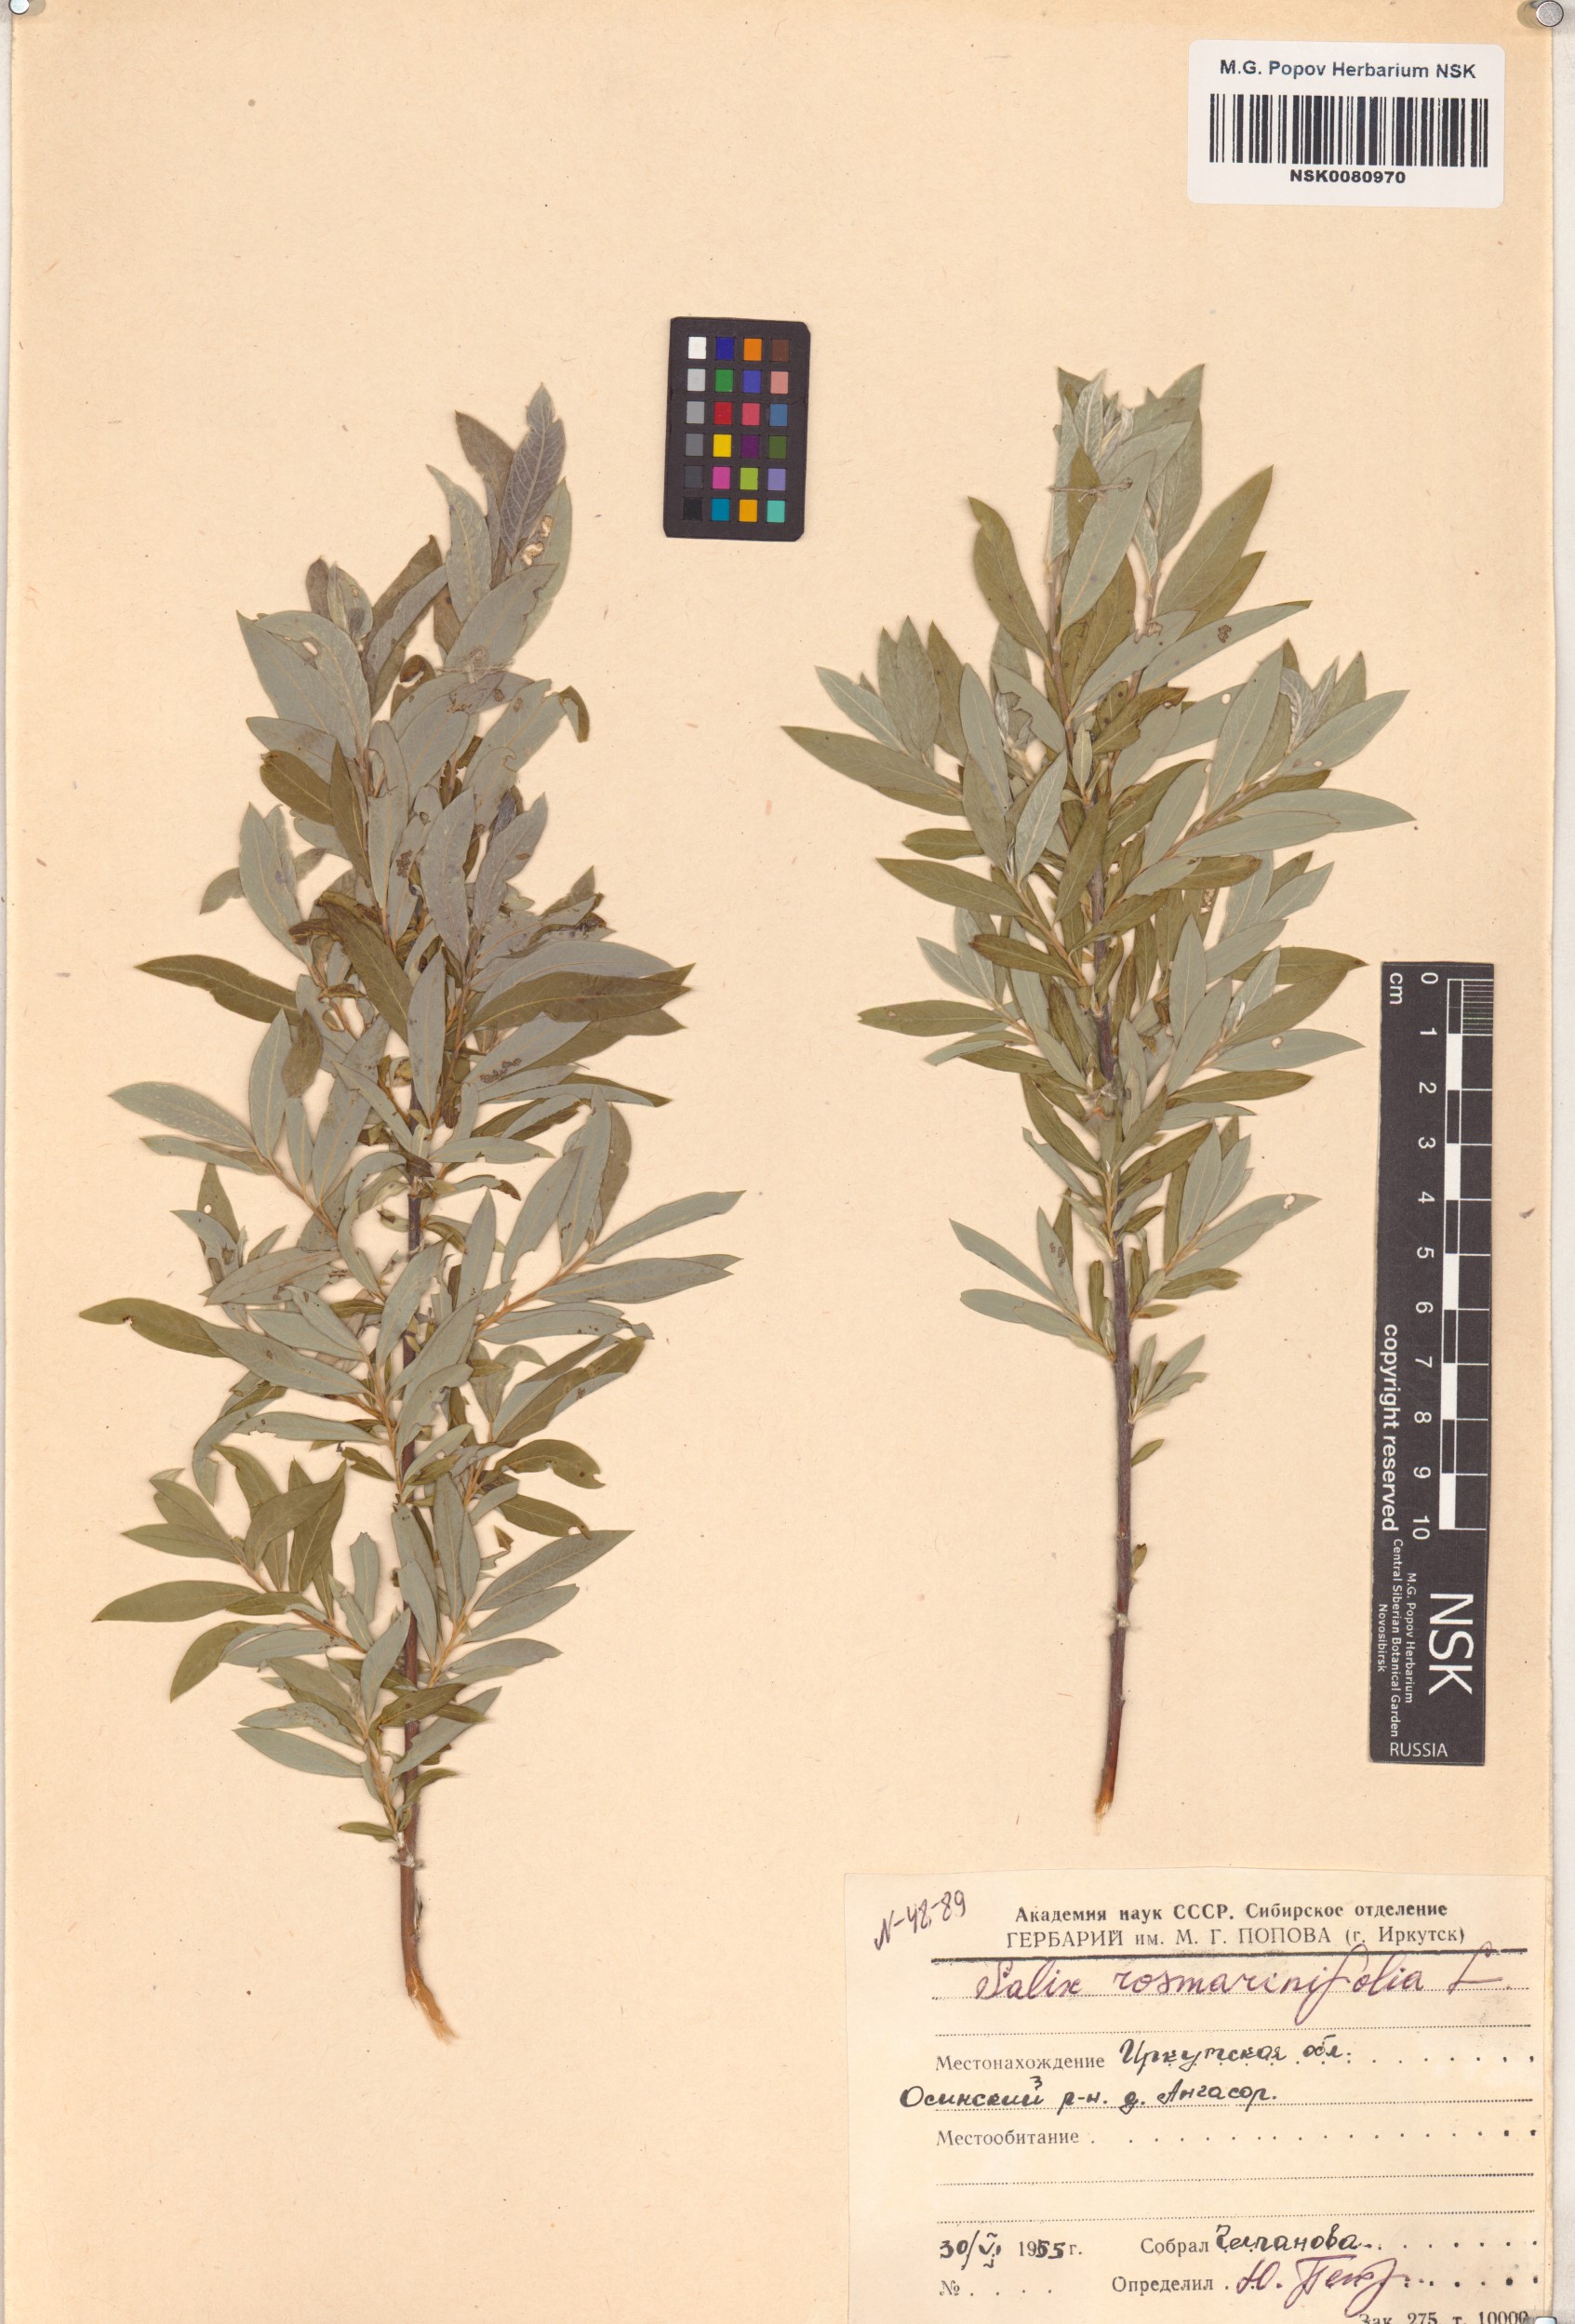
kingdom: Plantae
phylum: Tracheophyta
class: Magnoliopsida
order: Malpighiales
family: Salicaceae
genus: Salix
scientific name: Salix rosmarinifolia
